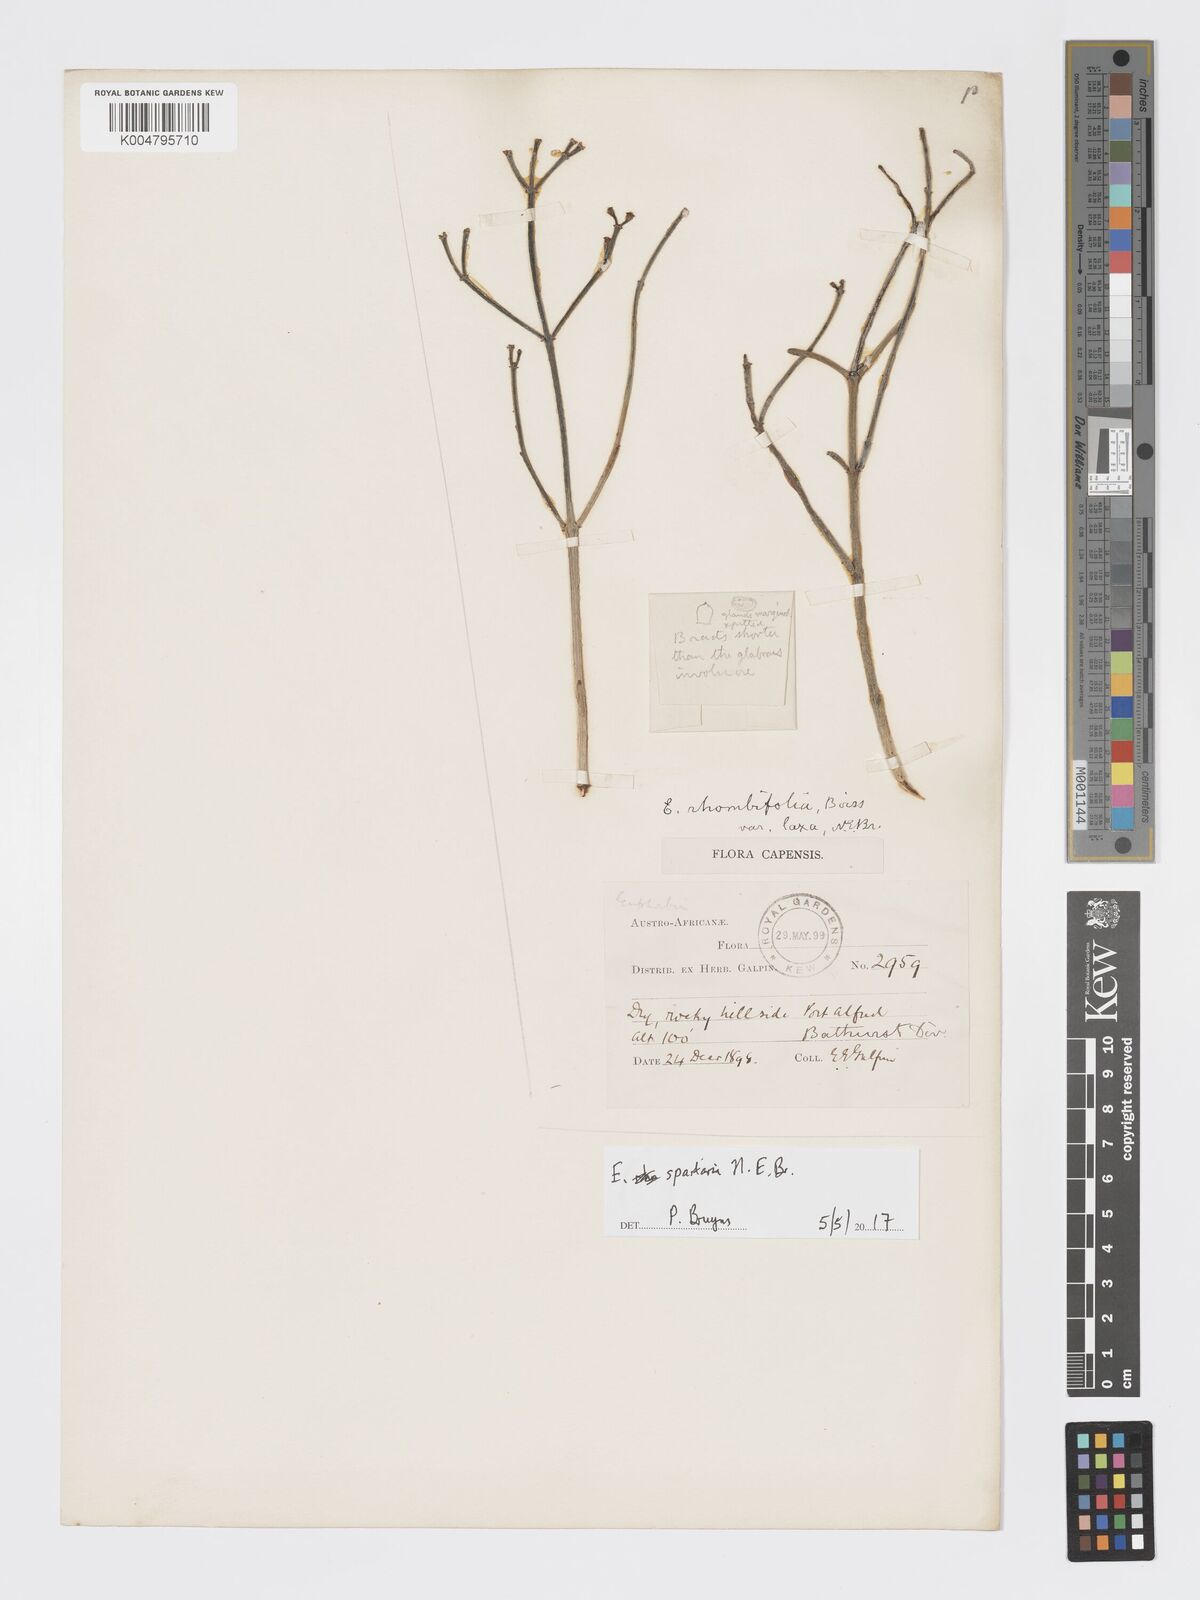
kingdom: Plantae
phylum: Tracheophyta
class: Magnoliopsida
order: Malpighiales
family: Euphorbiaceae
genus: Euphorbia
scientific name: Euphorbia spartaria
